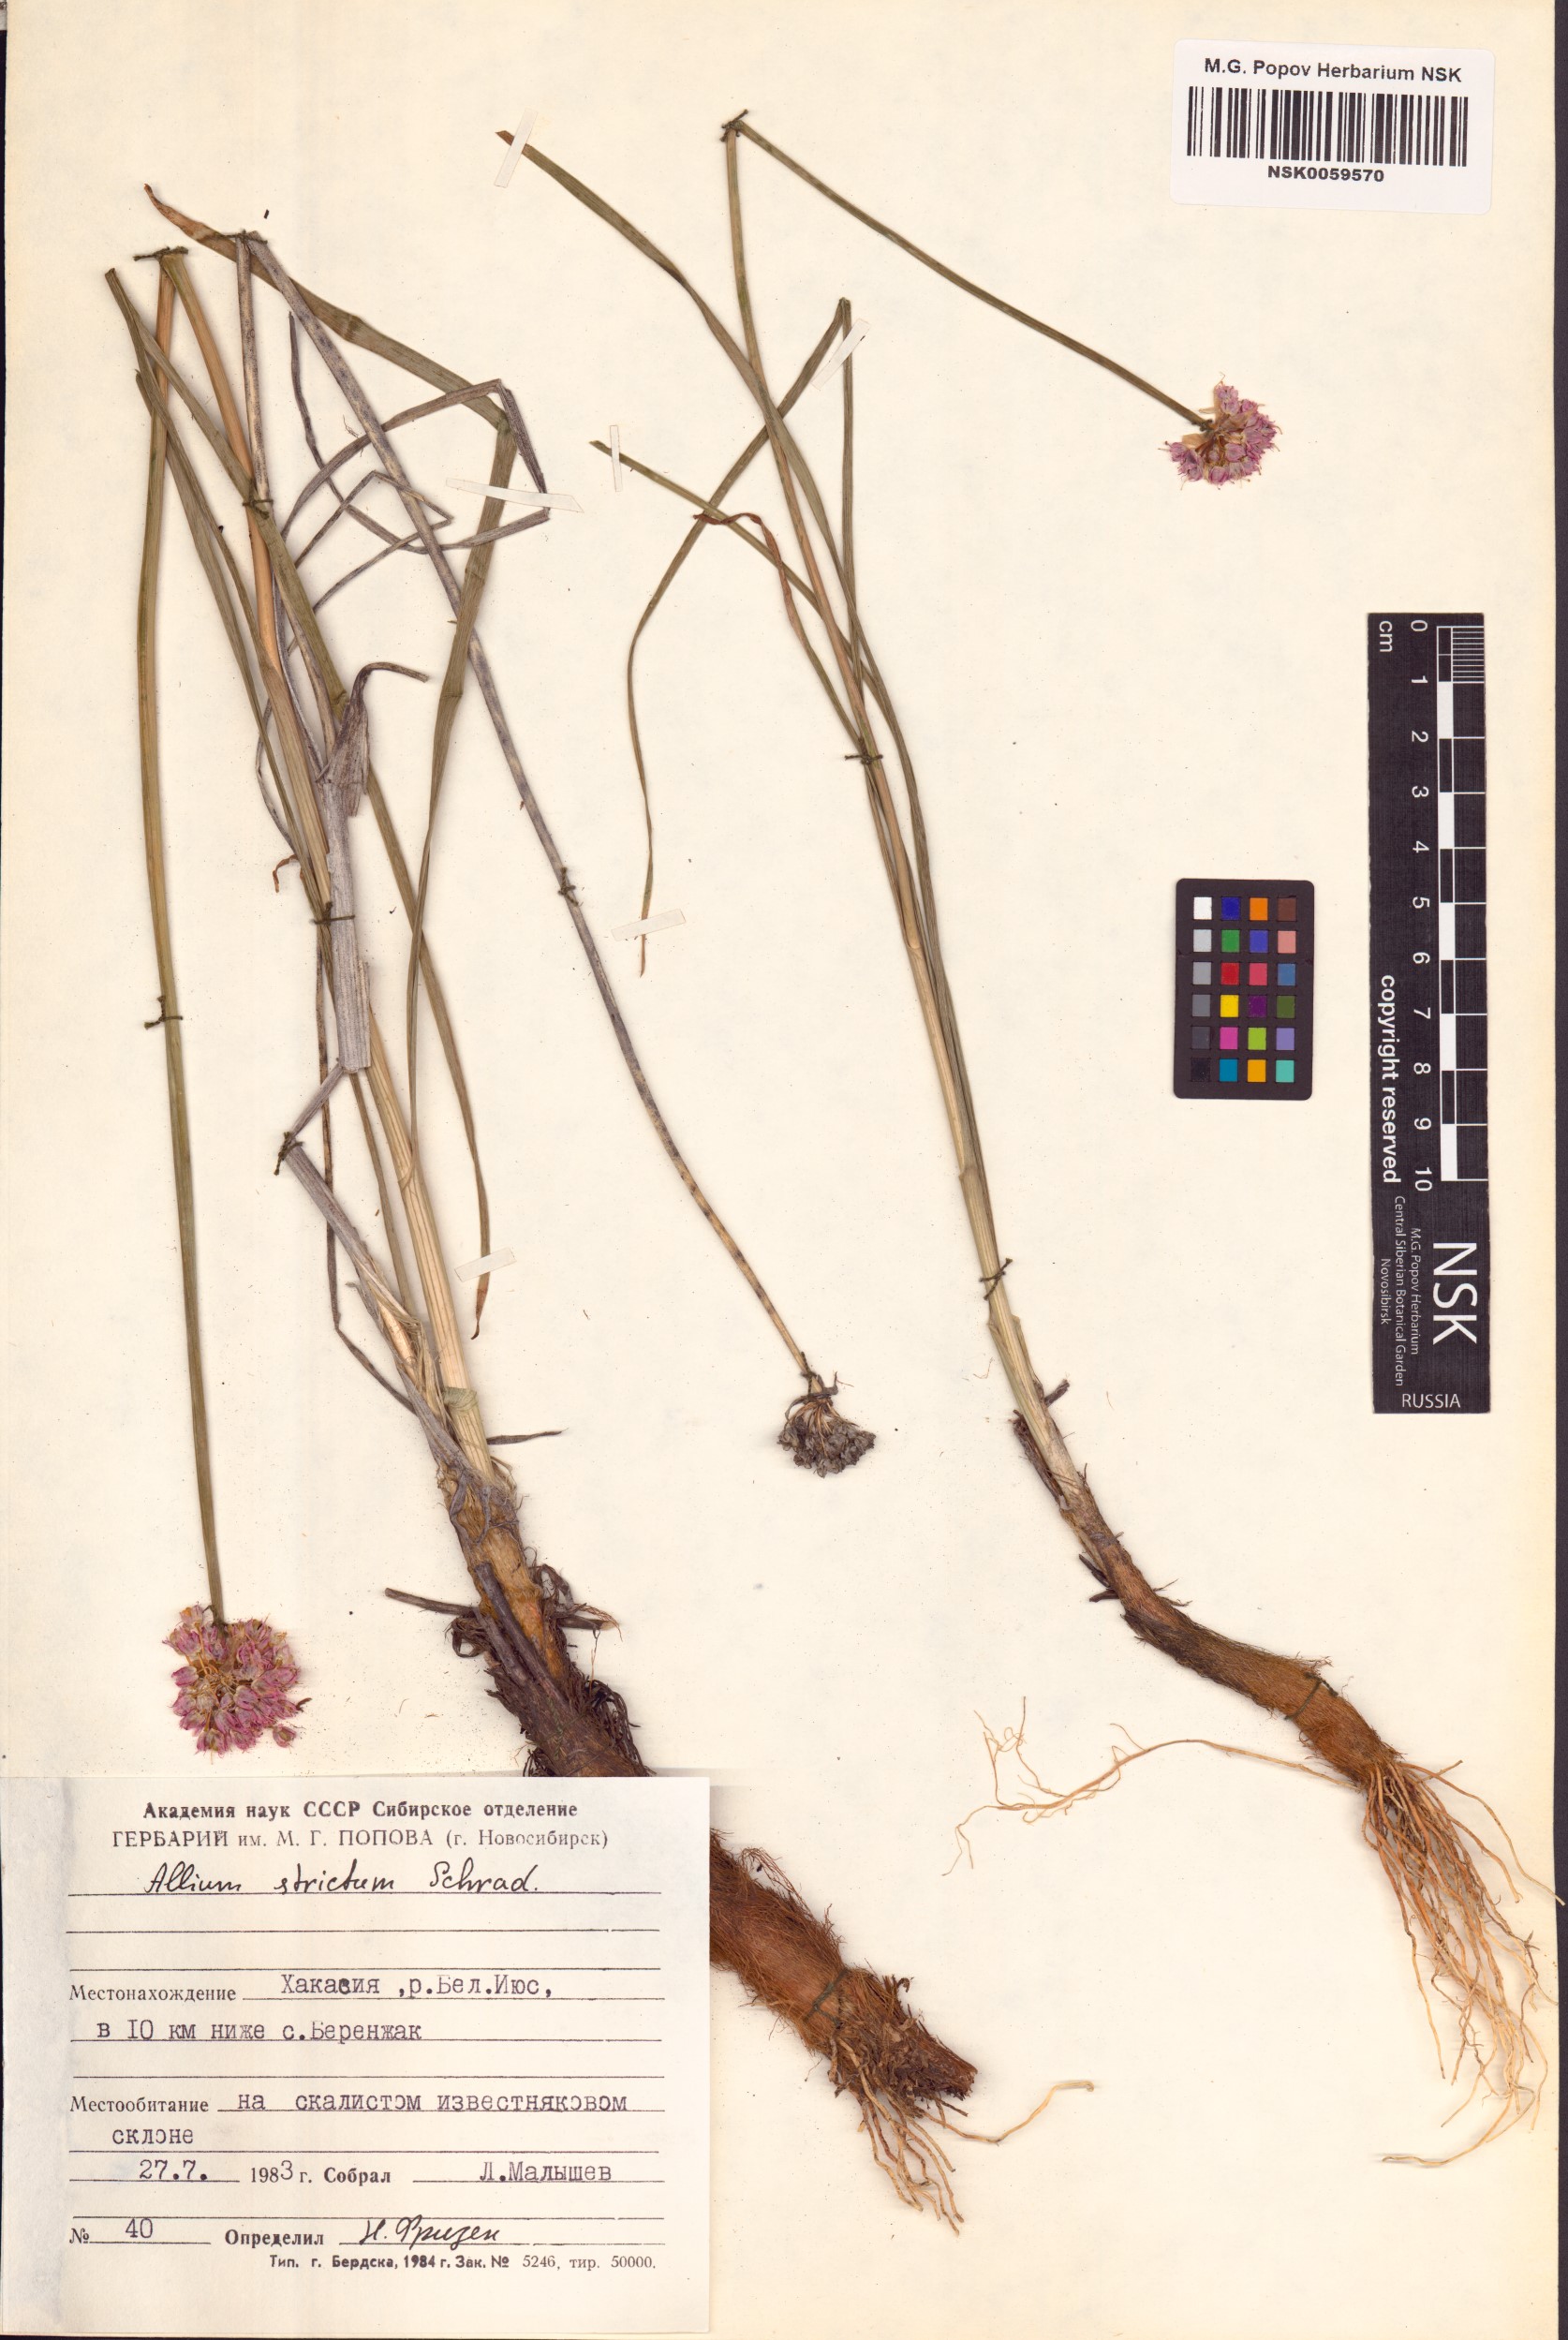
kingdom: Plantae
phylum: Tracheophyta
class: Liliopsida
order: Asparagales
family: Amaryllidaceae
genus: Allium
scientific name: Allium strictum
